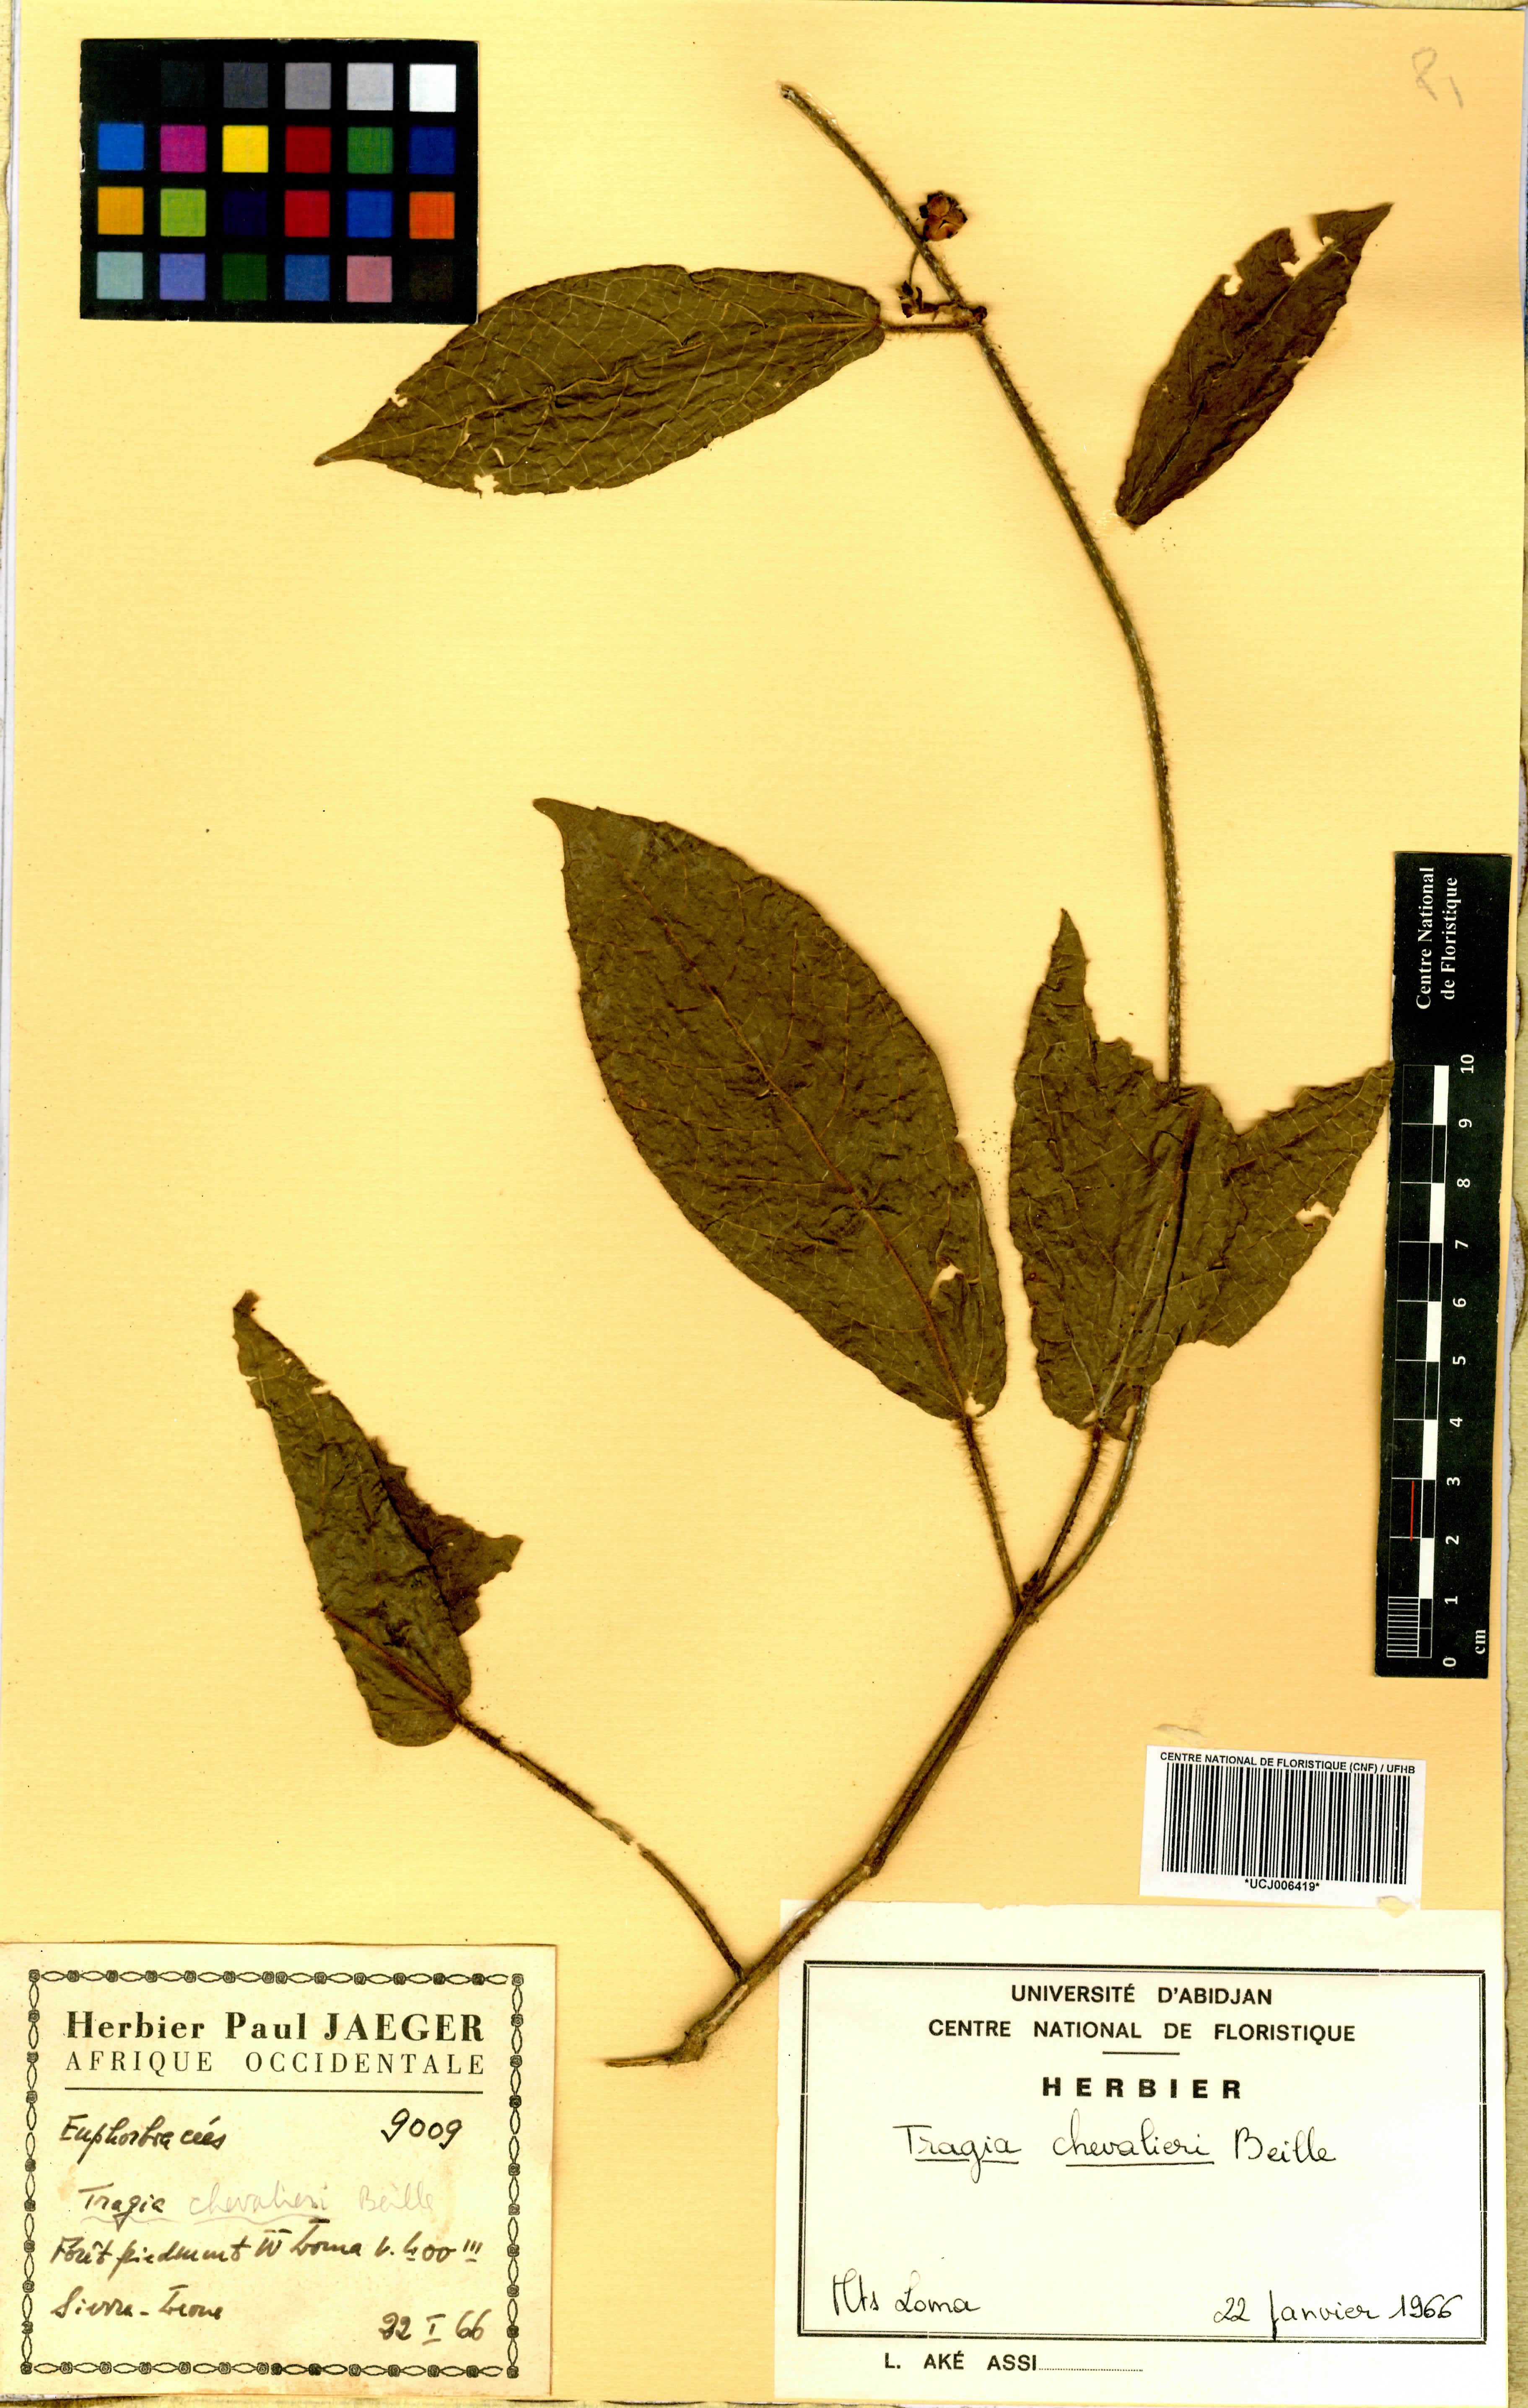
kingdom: Plantae
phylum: Tracheophyta
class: Magnoliopsida
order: Malpighiales
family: Euphorbiaceae
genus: Tragia
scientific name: Tragia chevalieri
